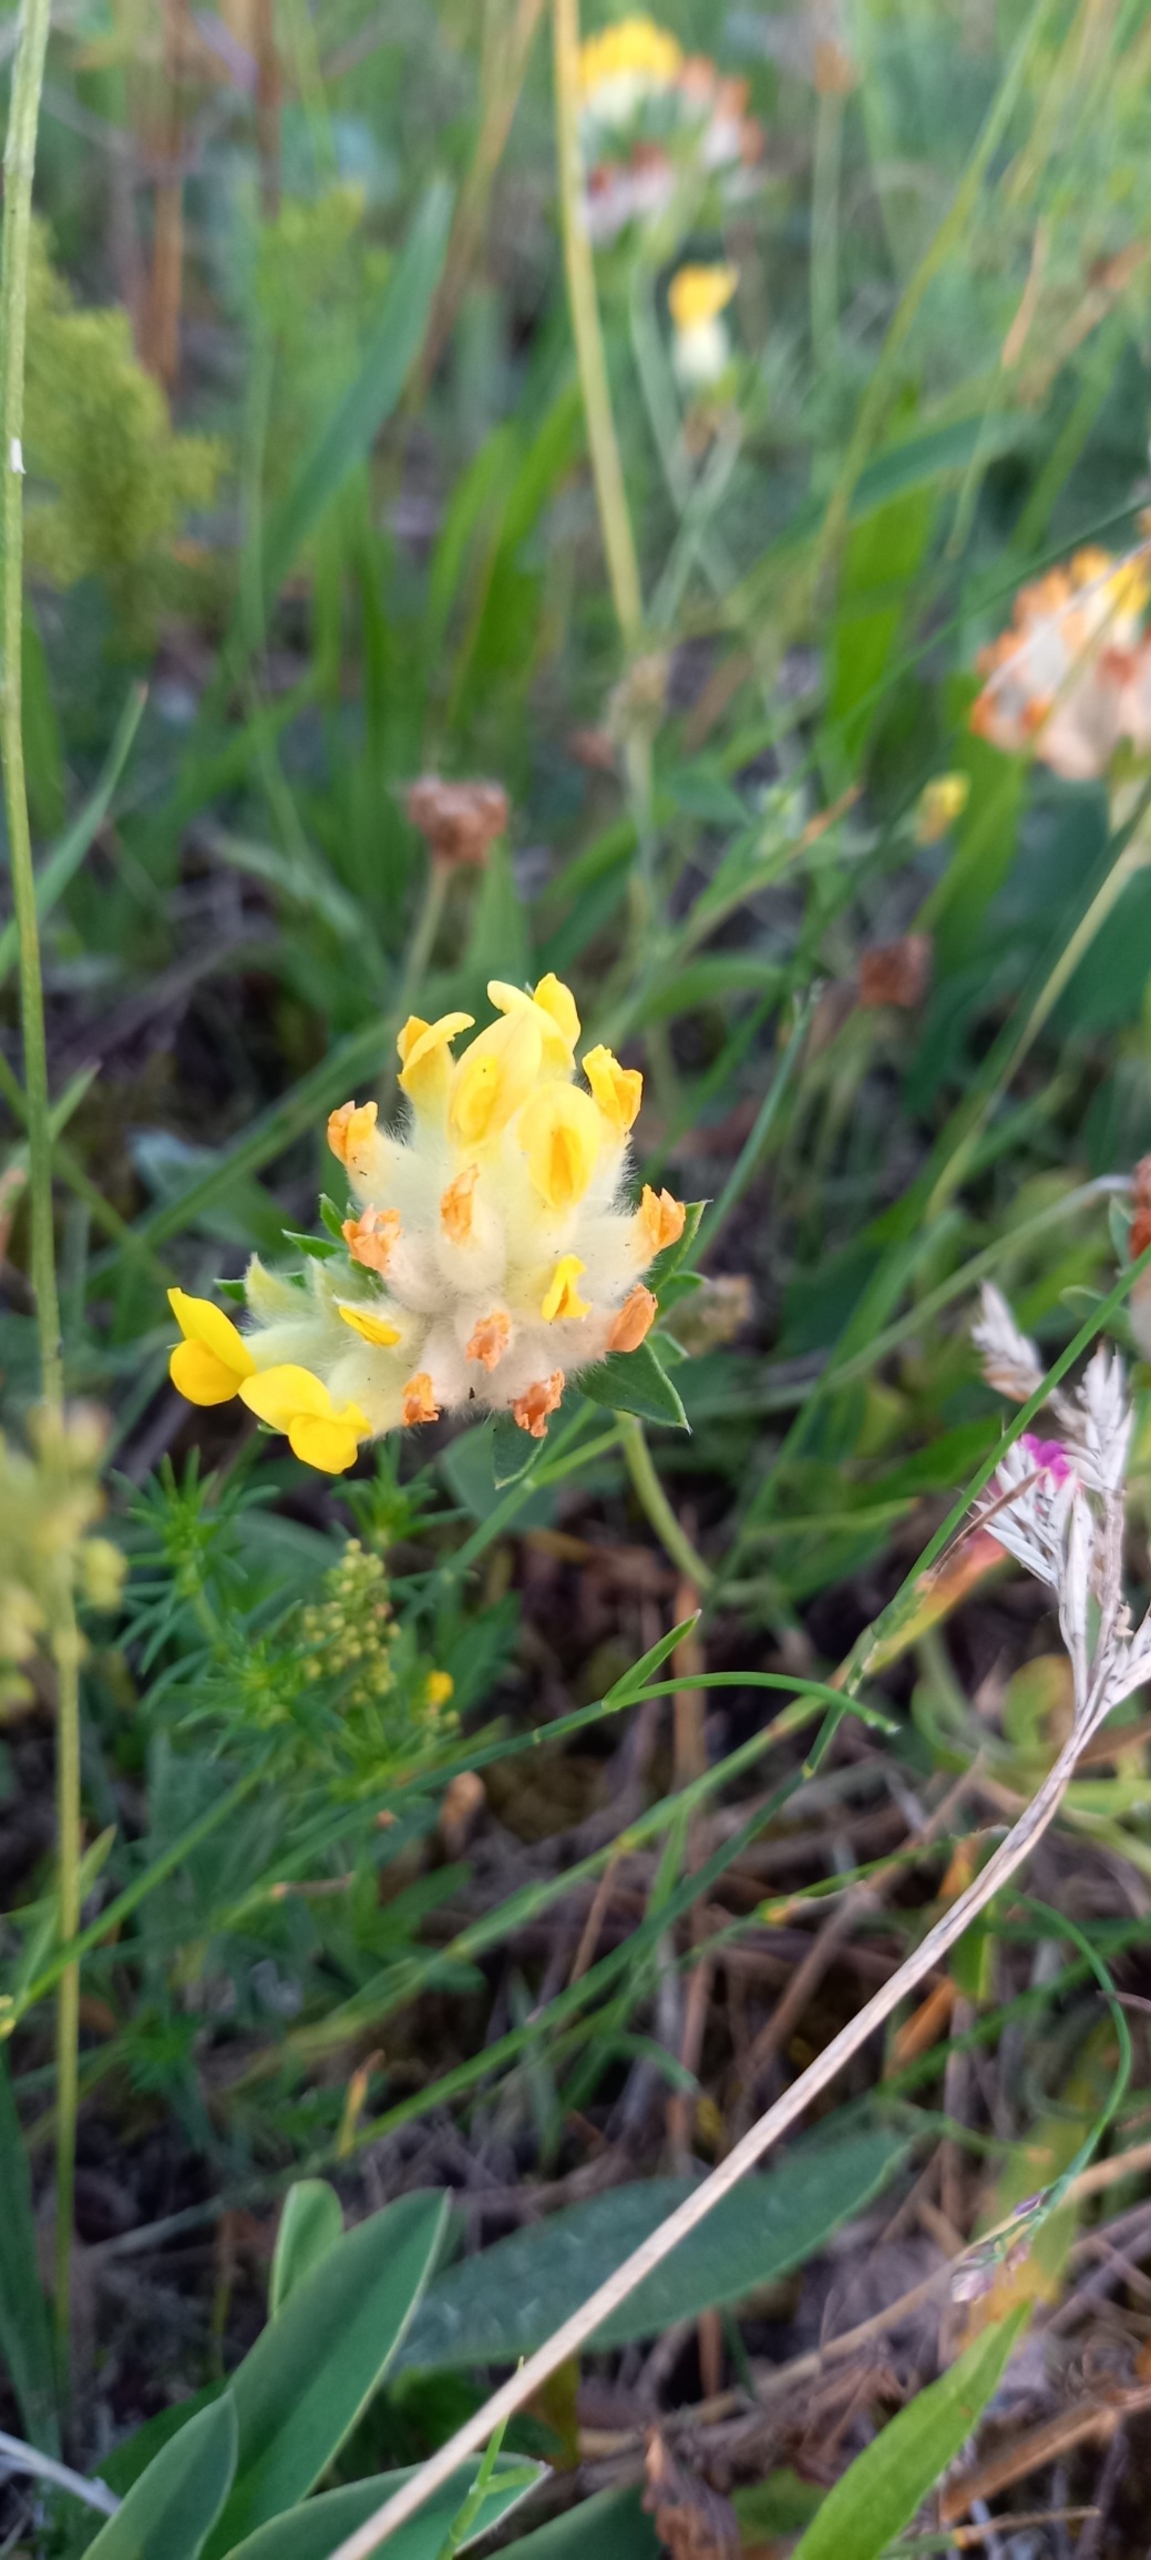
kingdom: Plantae
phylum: Tracheophyta
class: Magnoliopsida
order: Fabales
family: Fabaceae
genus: Anthyllis
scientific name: Anthyllis vulneraria
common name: Rundbælg
